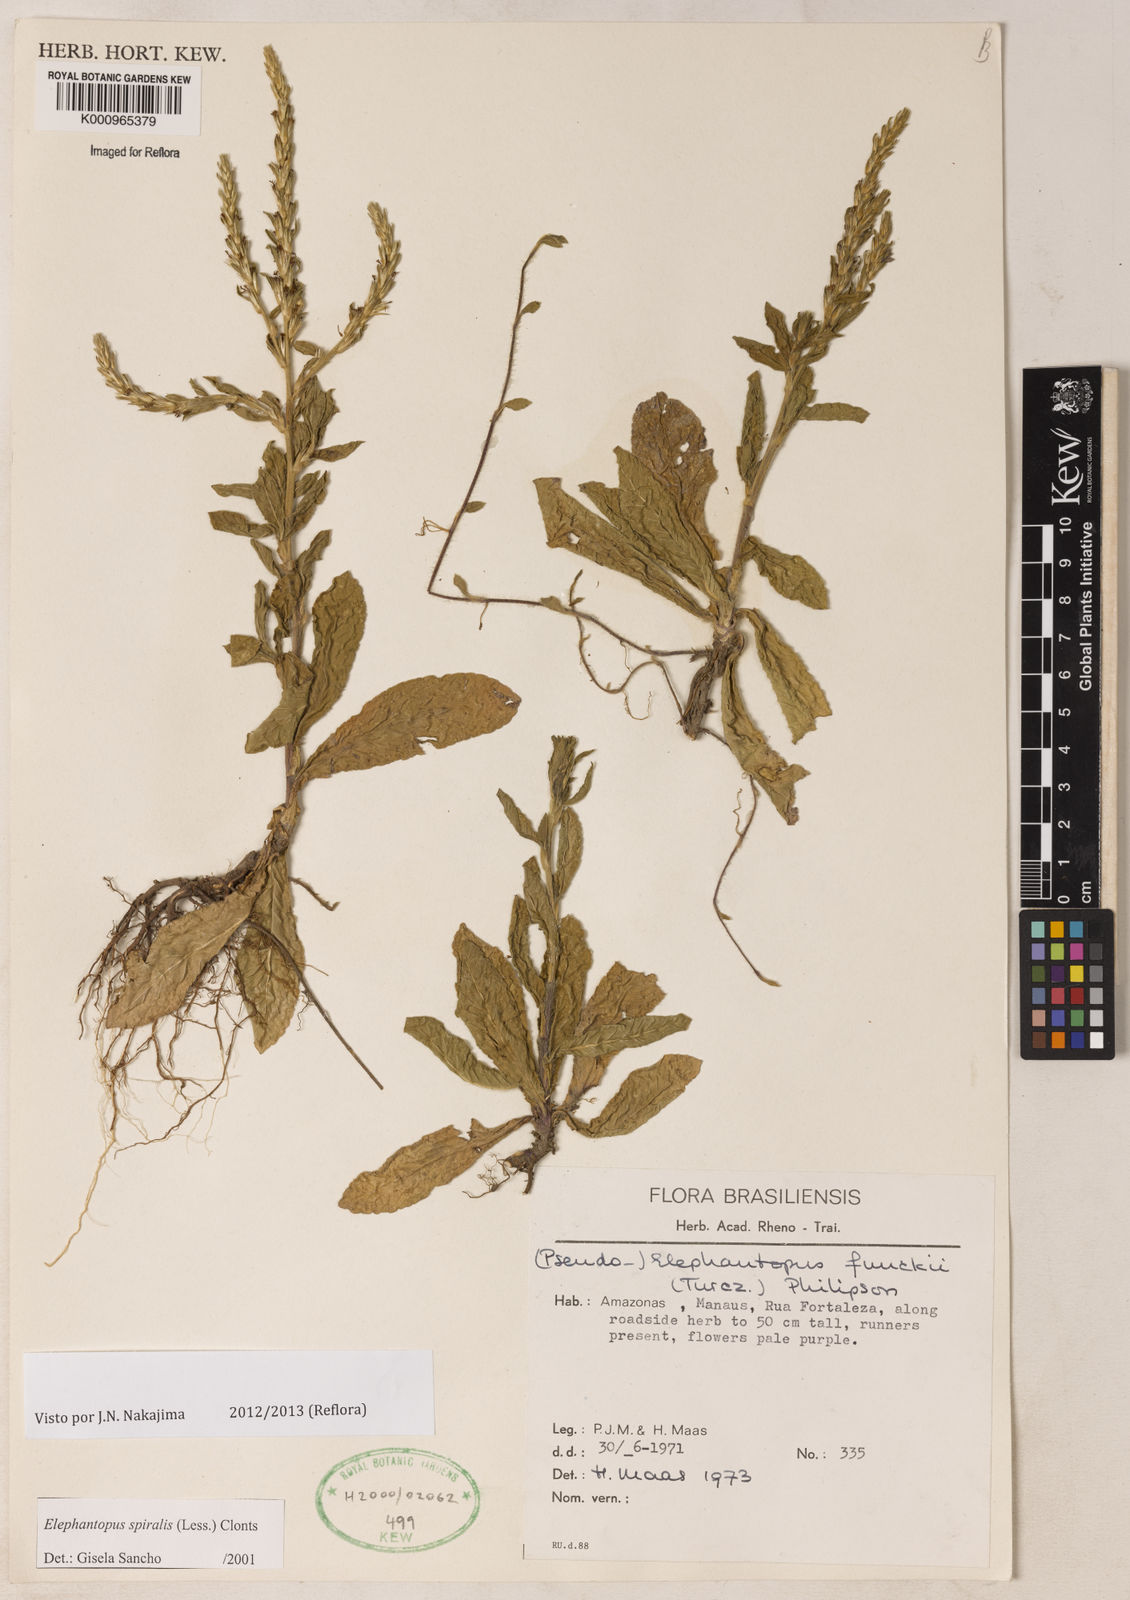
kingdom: Plantae
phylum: Tracheophyta
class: Magnoliopsida
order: Asterales
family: Asteraceae
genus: Pseudelephantopus
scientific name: Pseudelephantopus spiralis
